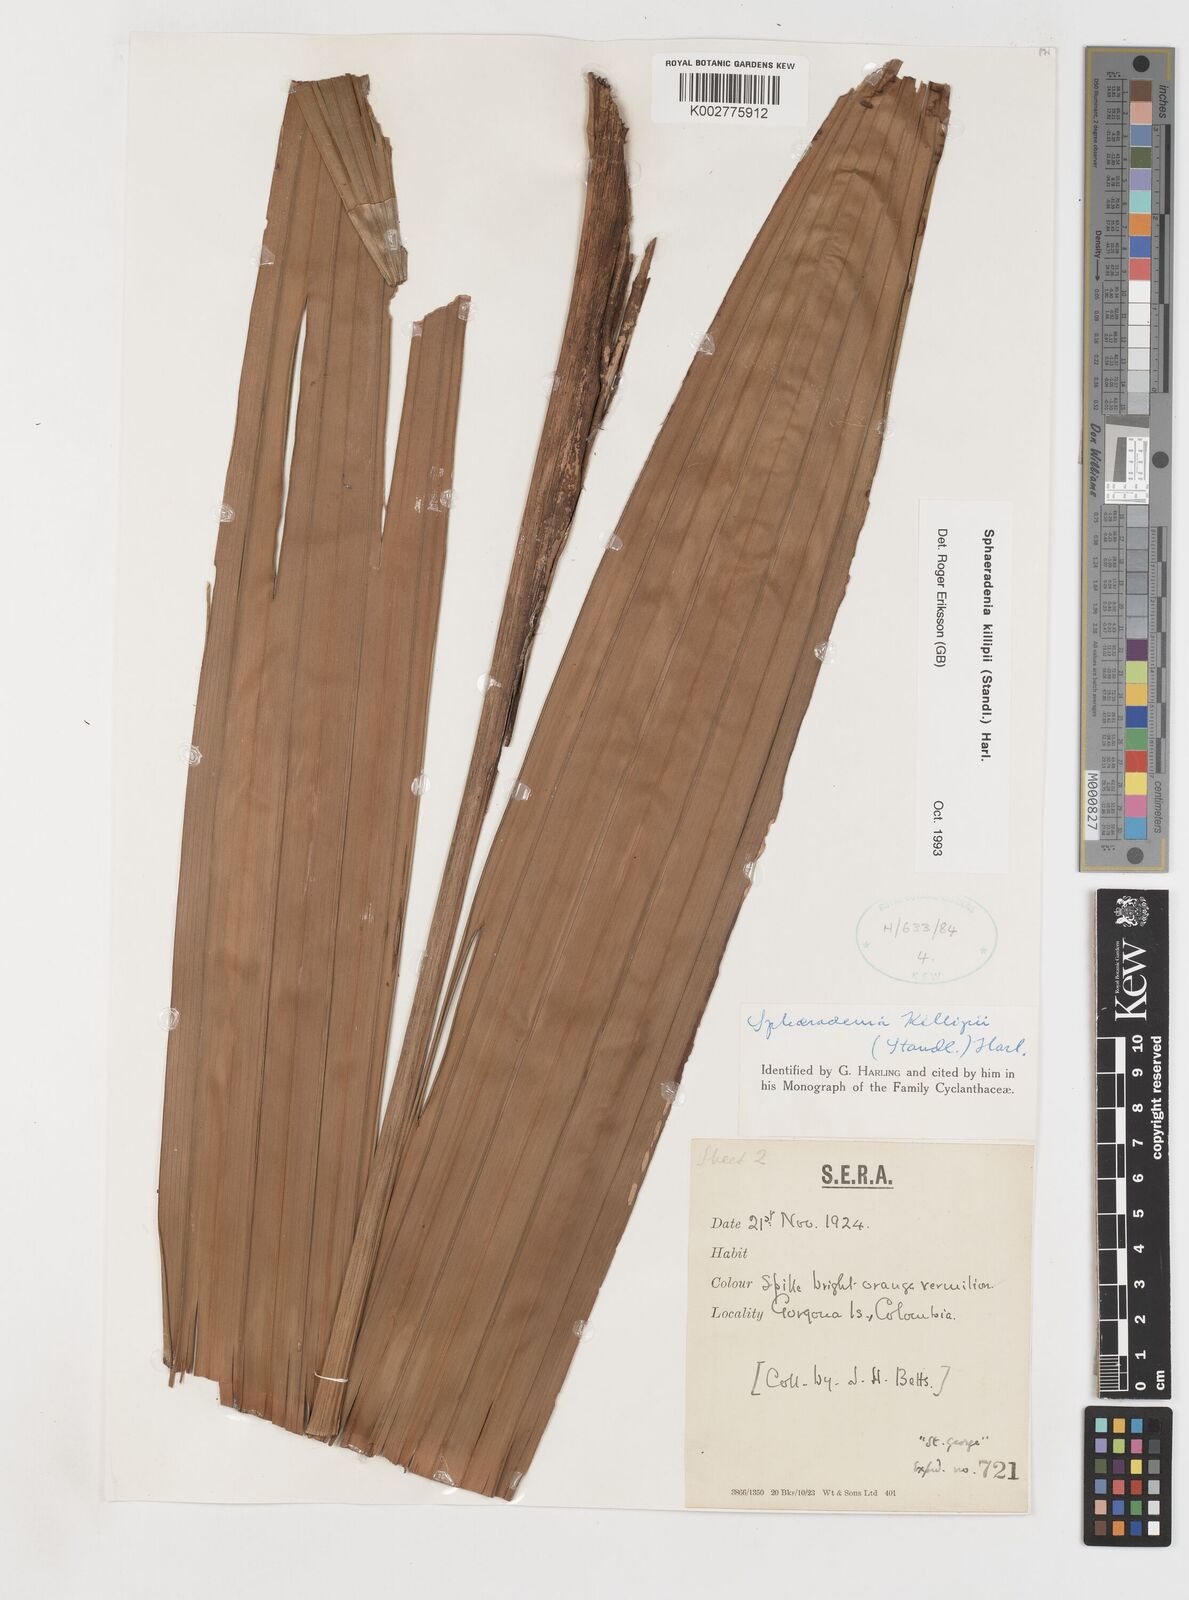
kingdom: Plantae
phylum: Tracheophyta
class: Liliopsida
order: Pandanales
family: Cyclanthaceae
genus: Sphaeradenia
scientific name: Sphaeradenia killipii
